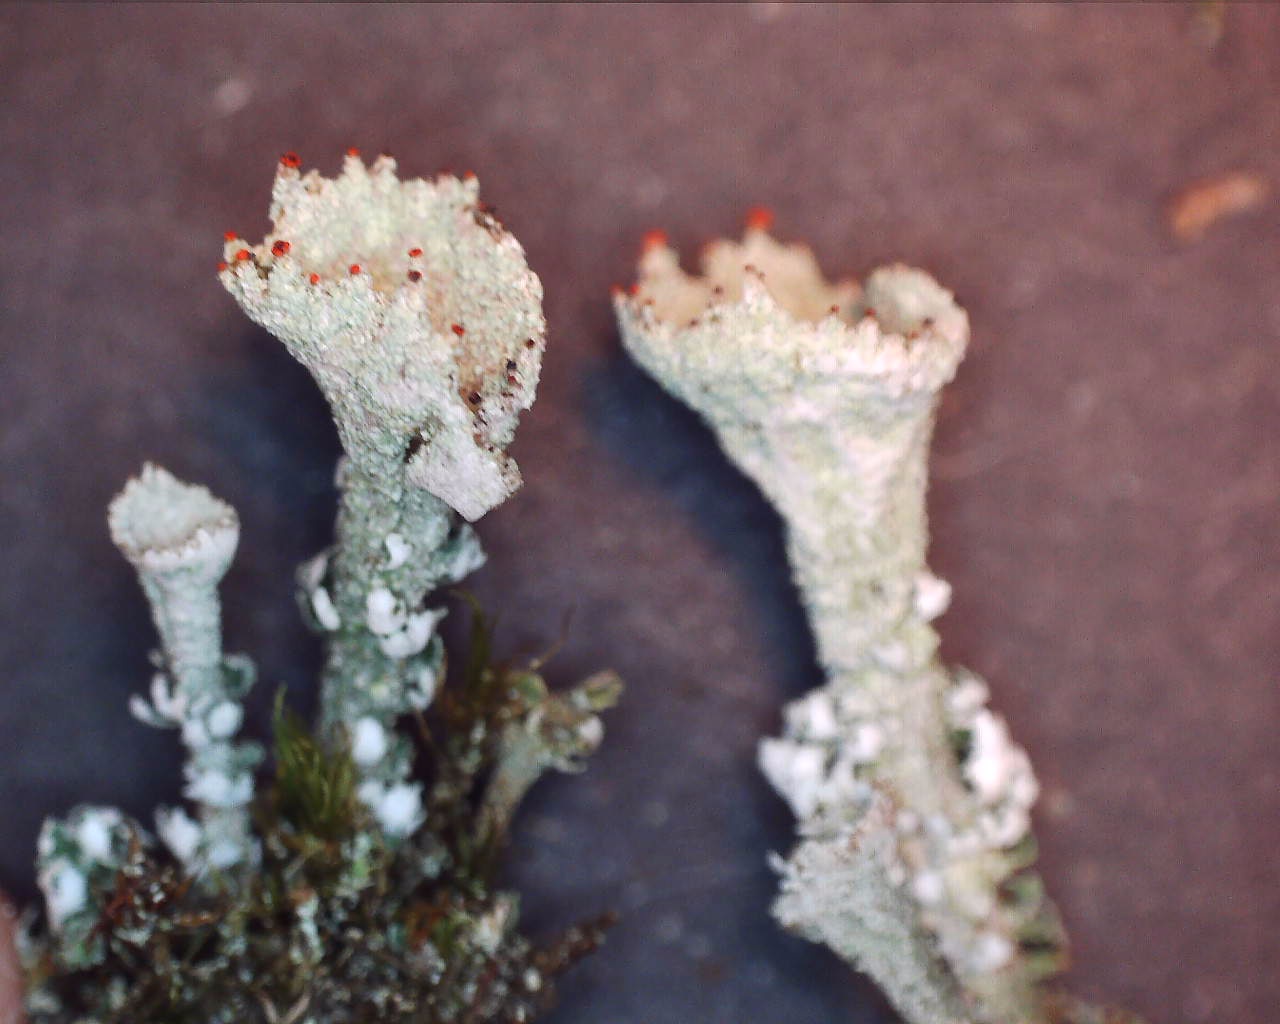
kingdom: Fungi
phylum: Ascomycota
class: Lecanoromycetes
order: Lecanorales
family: Cladoniaceae
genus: Cladonia
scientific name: Cladonia diversa
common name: rød bægerlav
